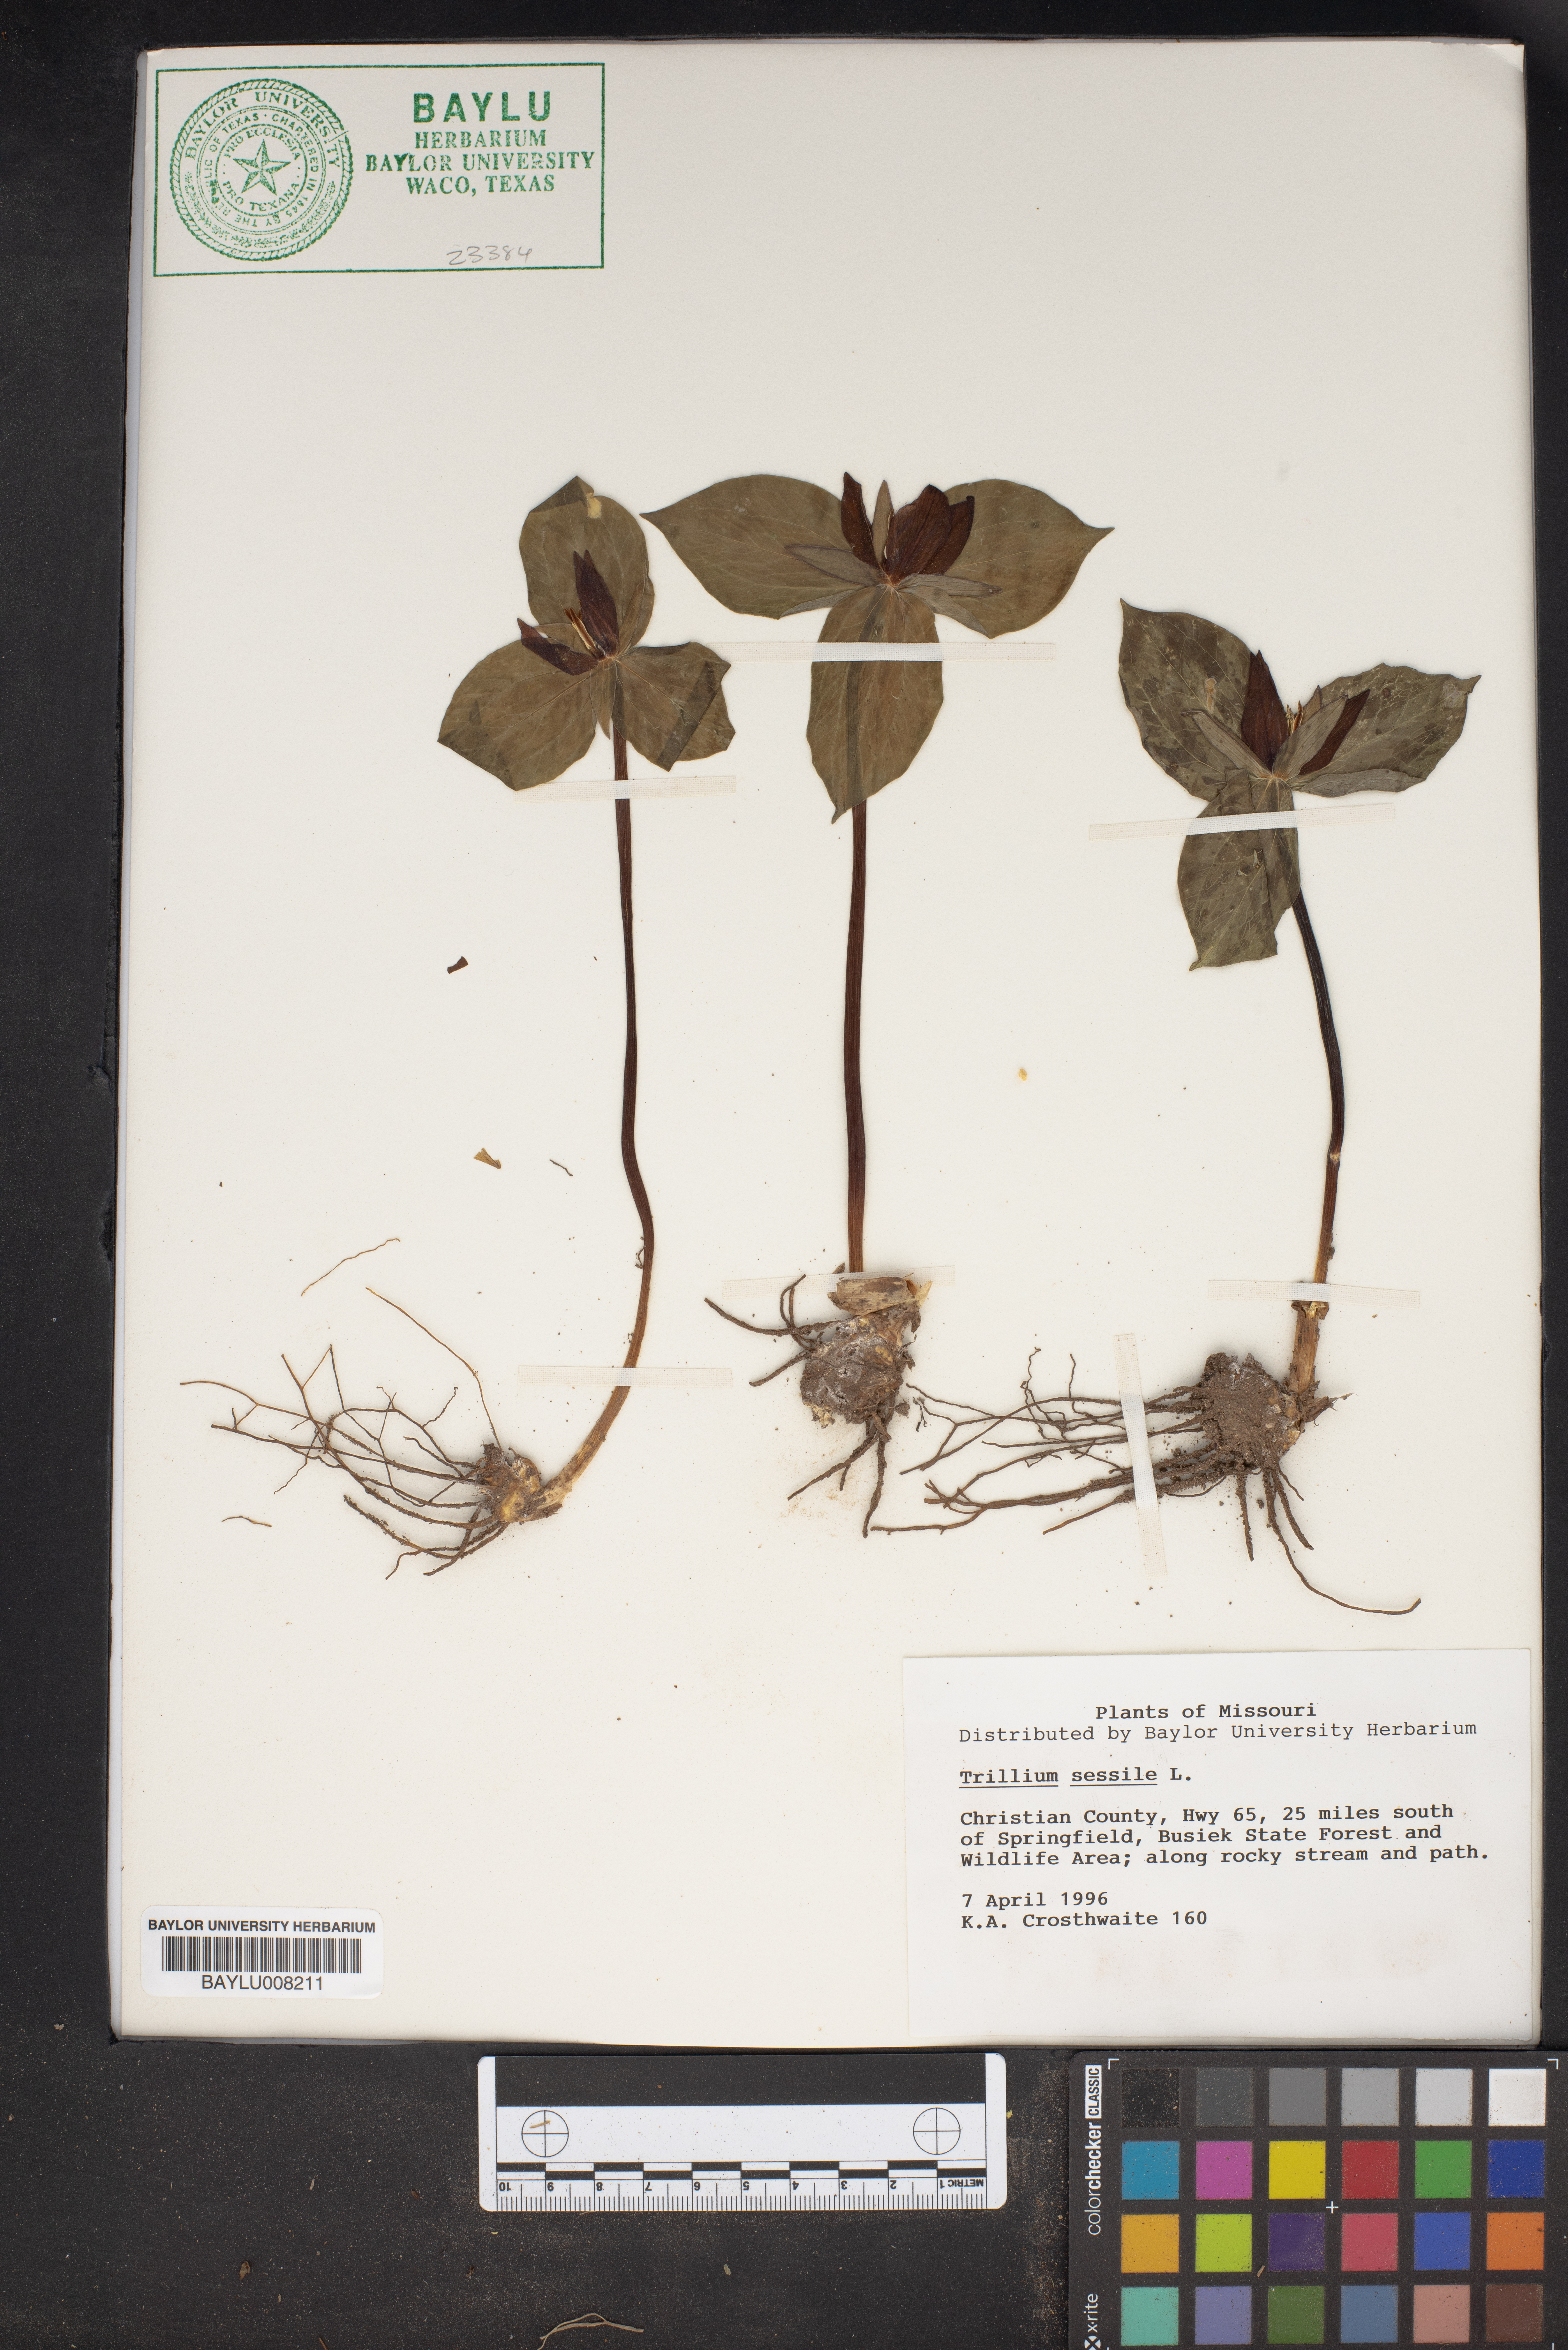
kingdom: Plantae
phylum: Tracheophyta
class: Liliopsida
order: Liliales
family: Melanthiaceae
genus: Trillium
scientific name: Trillium sessile
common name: Sessile trillium
